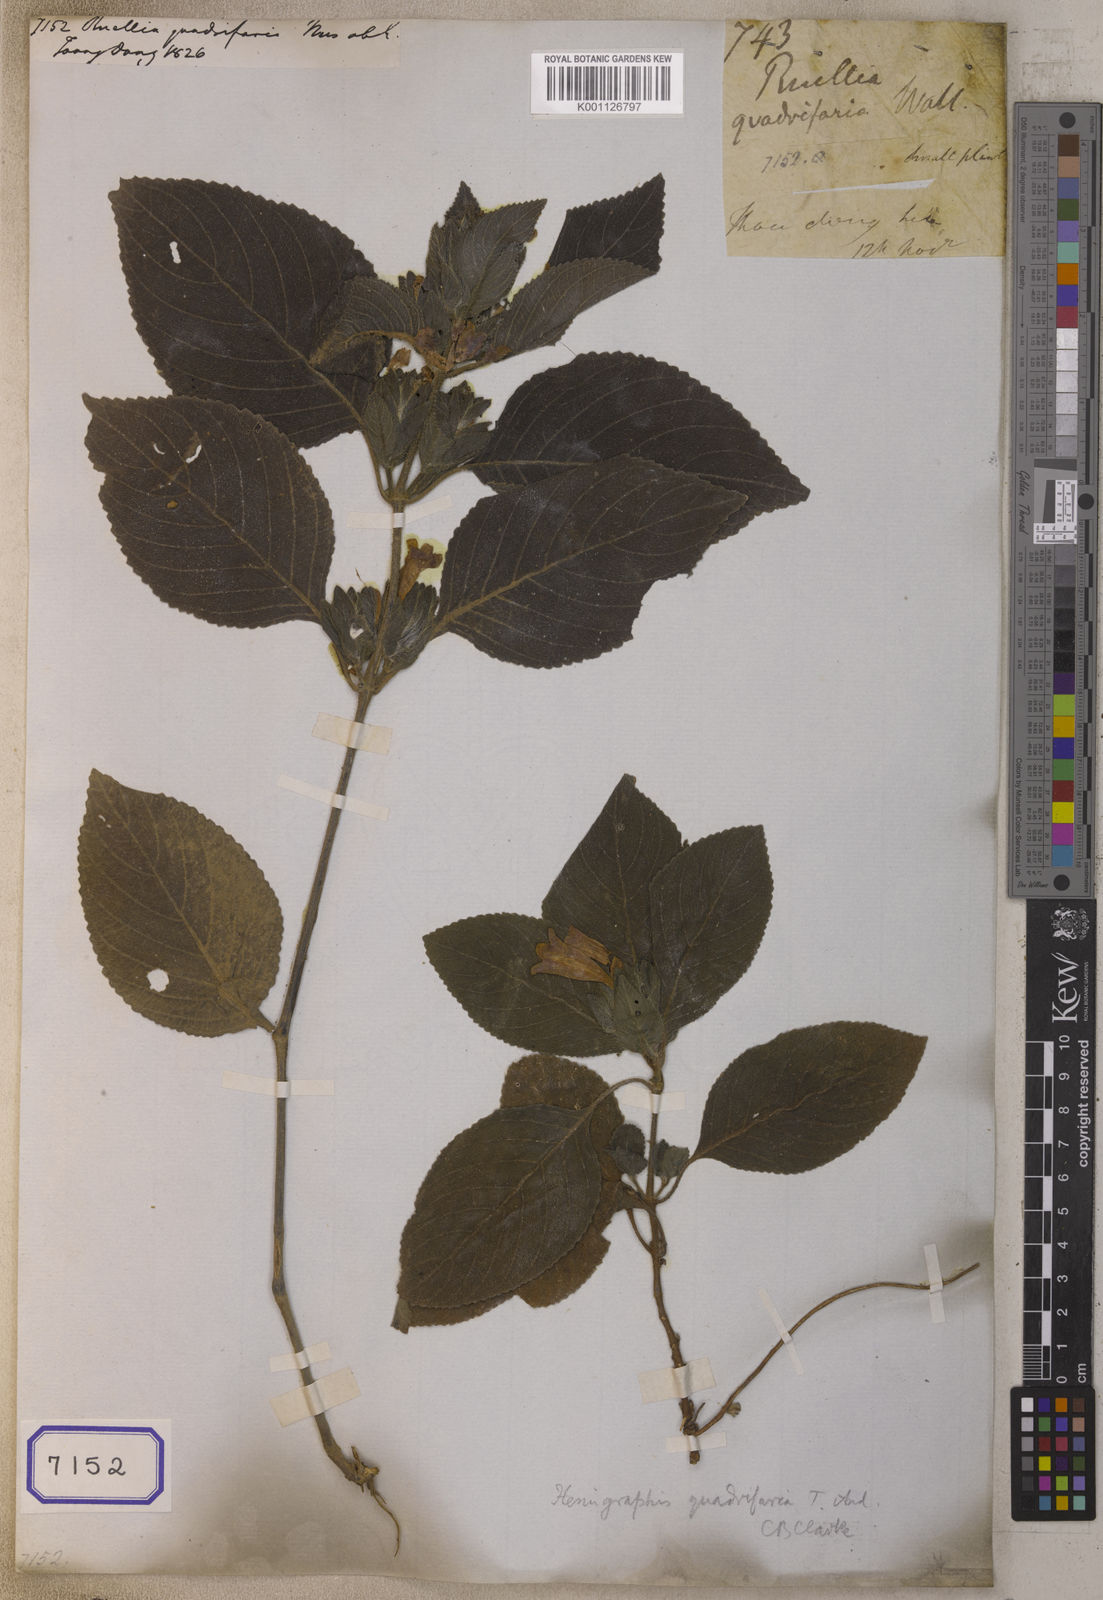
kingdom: Plantae
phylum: Tracheophyta
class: Magnoliopsida
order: Lamiales
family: Acanthaceae
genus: Strobilanthes
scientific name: Strobilanthes quadrifaria
